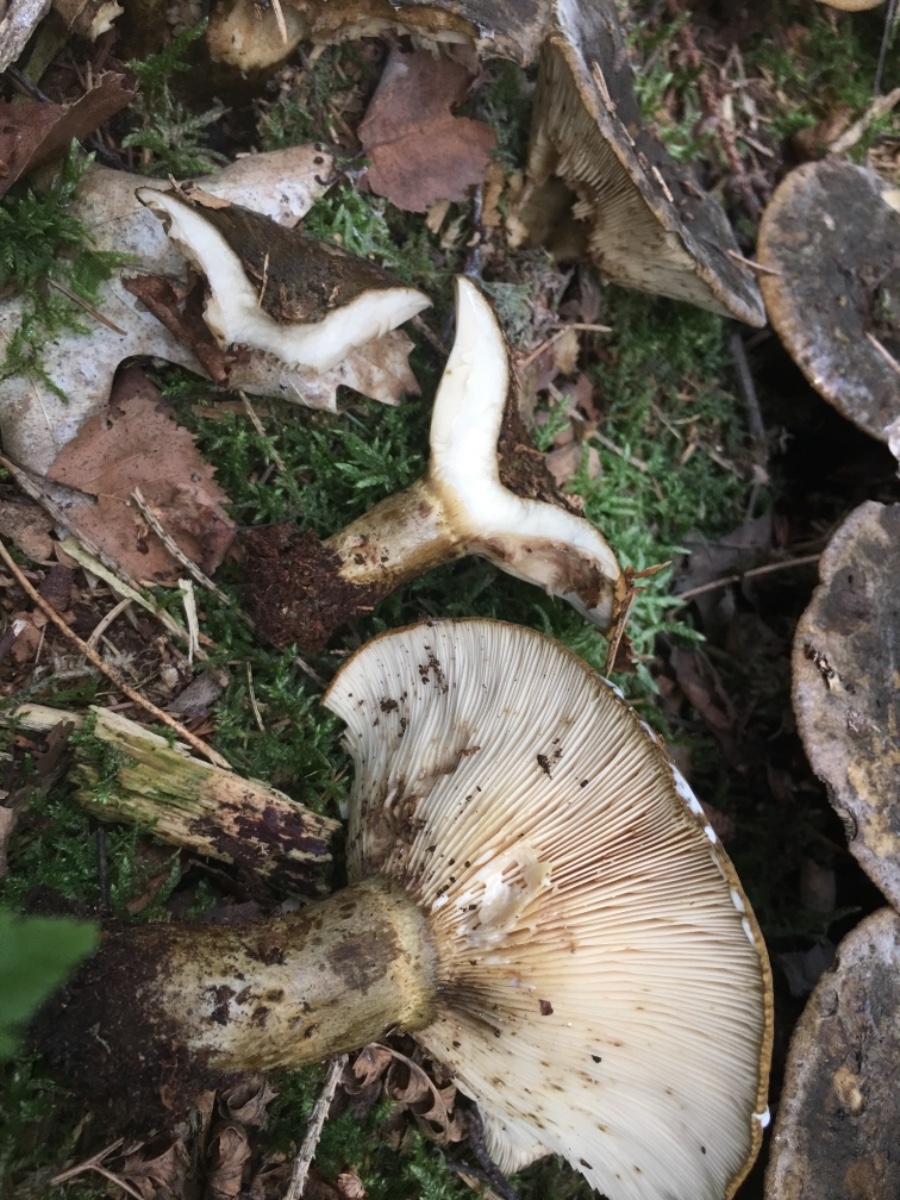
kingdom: Fungi
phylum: Basidiomycota
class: Agaricomycetes
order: Russulales
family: Russulaceae
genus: Lactarius
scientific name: Lactarius necator
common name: manddraber-mælkehat
